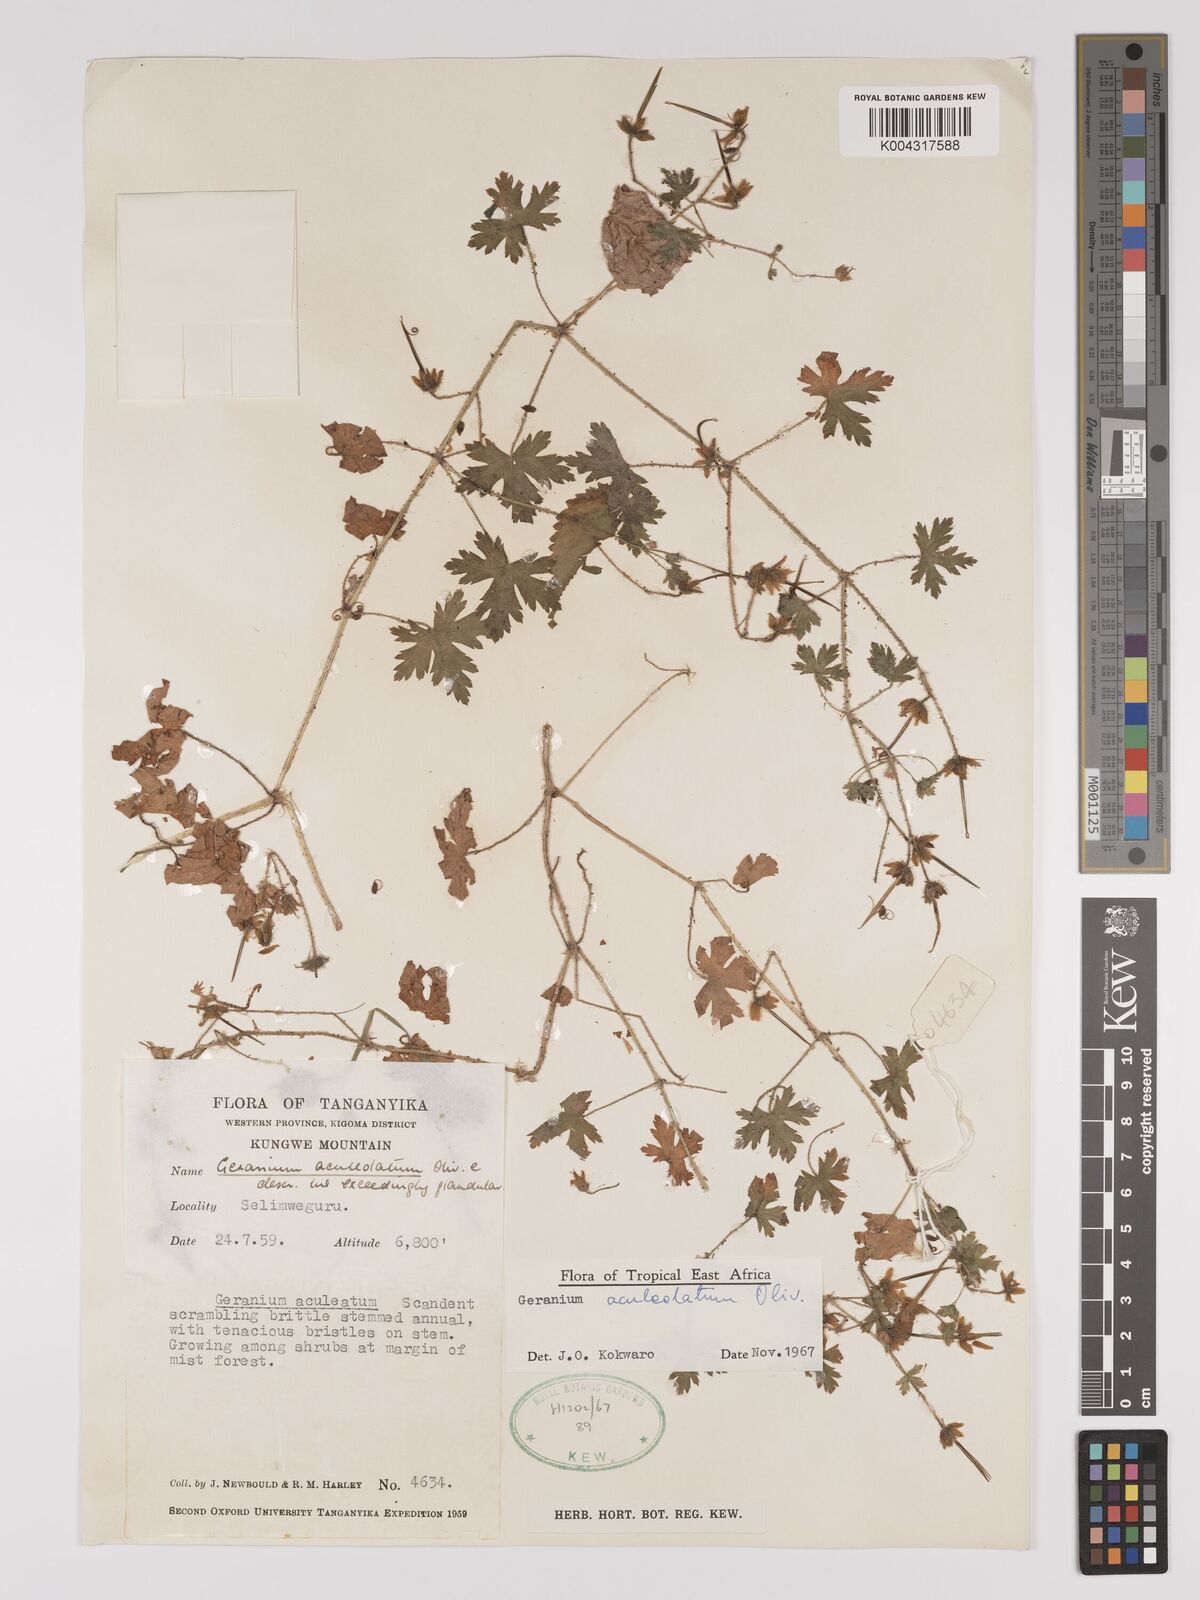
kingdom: Plantae
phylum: Tracheophyta
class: Magnoliopsida
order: Geraniales
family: Geraniaceae
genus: Geranium
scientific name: Geranium aculeolatum
